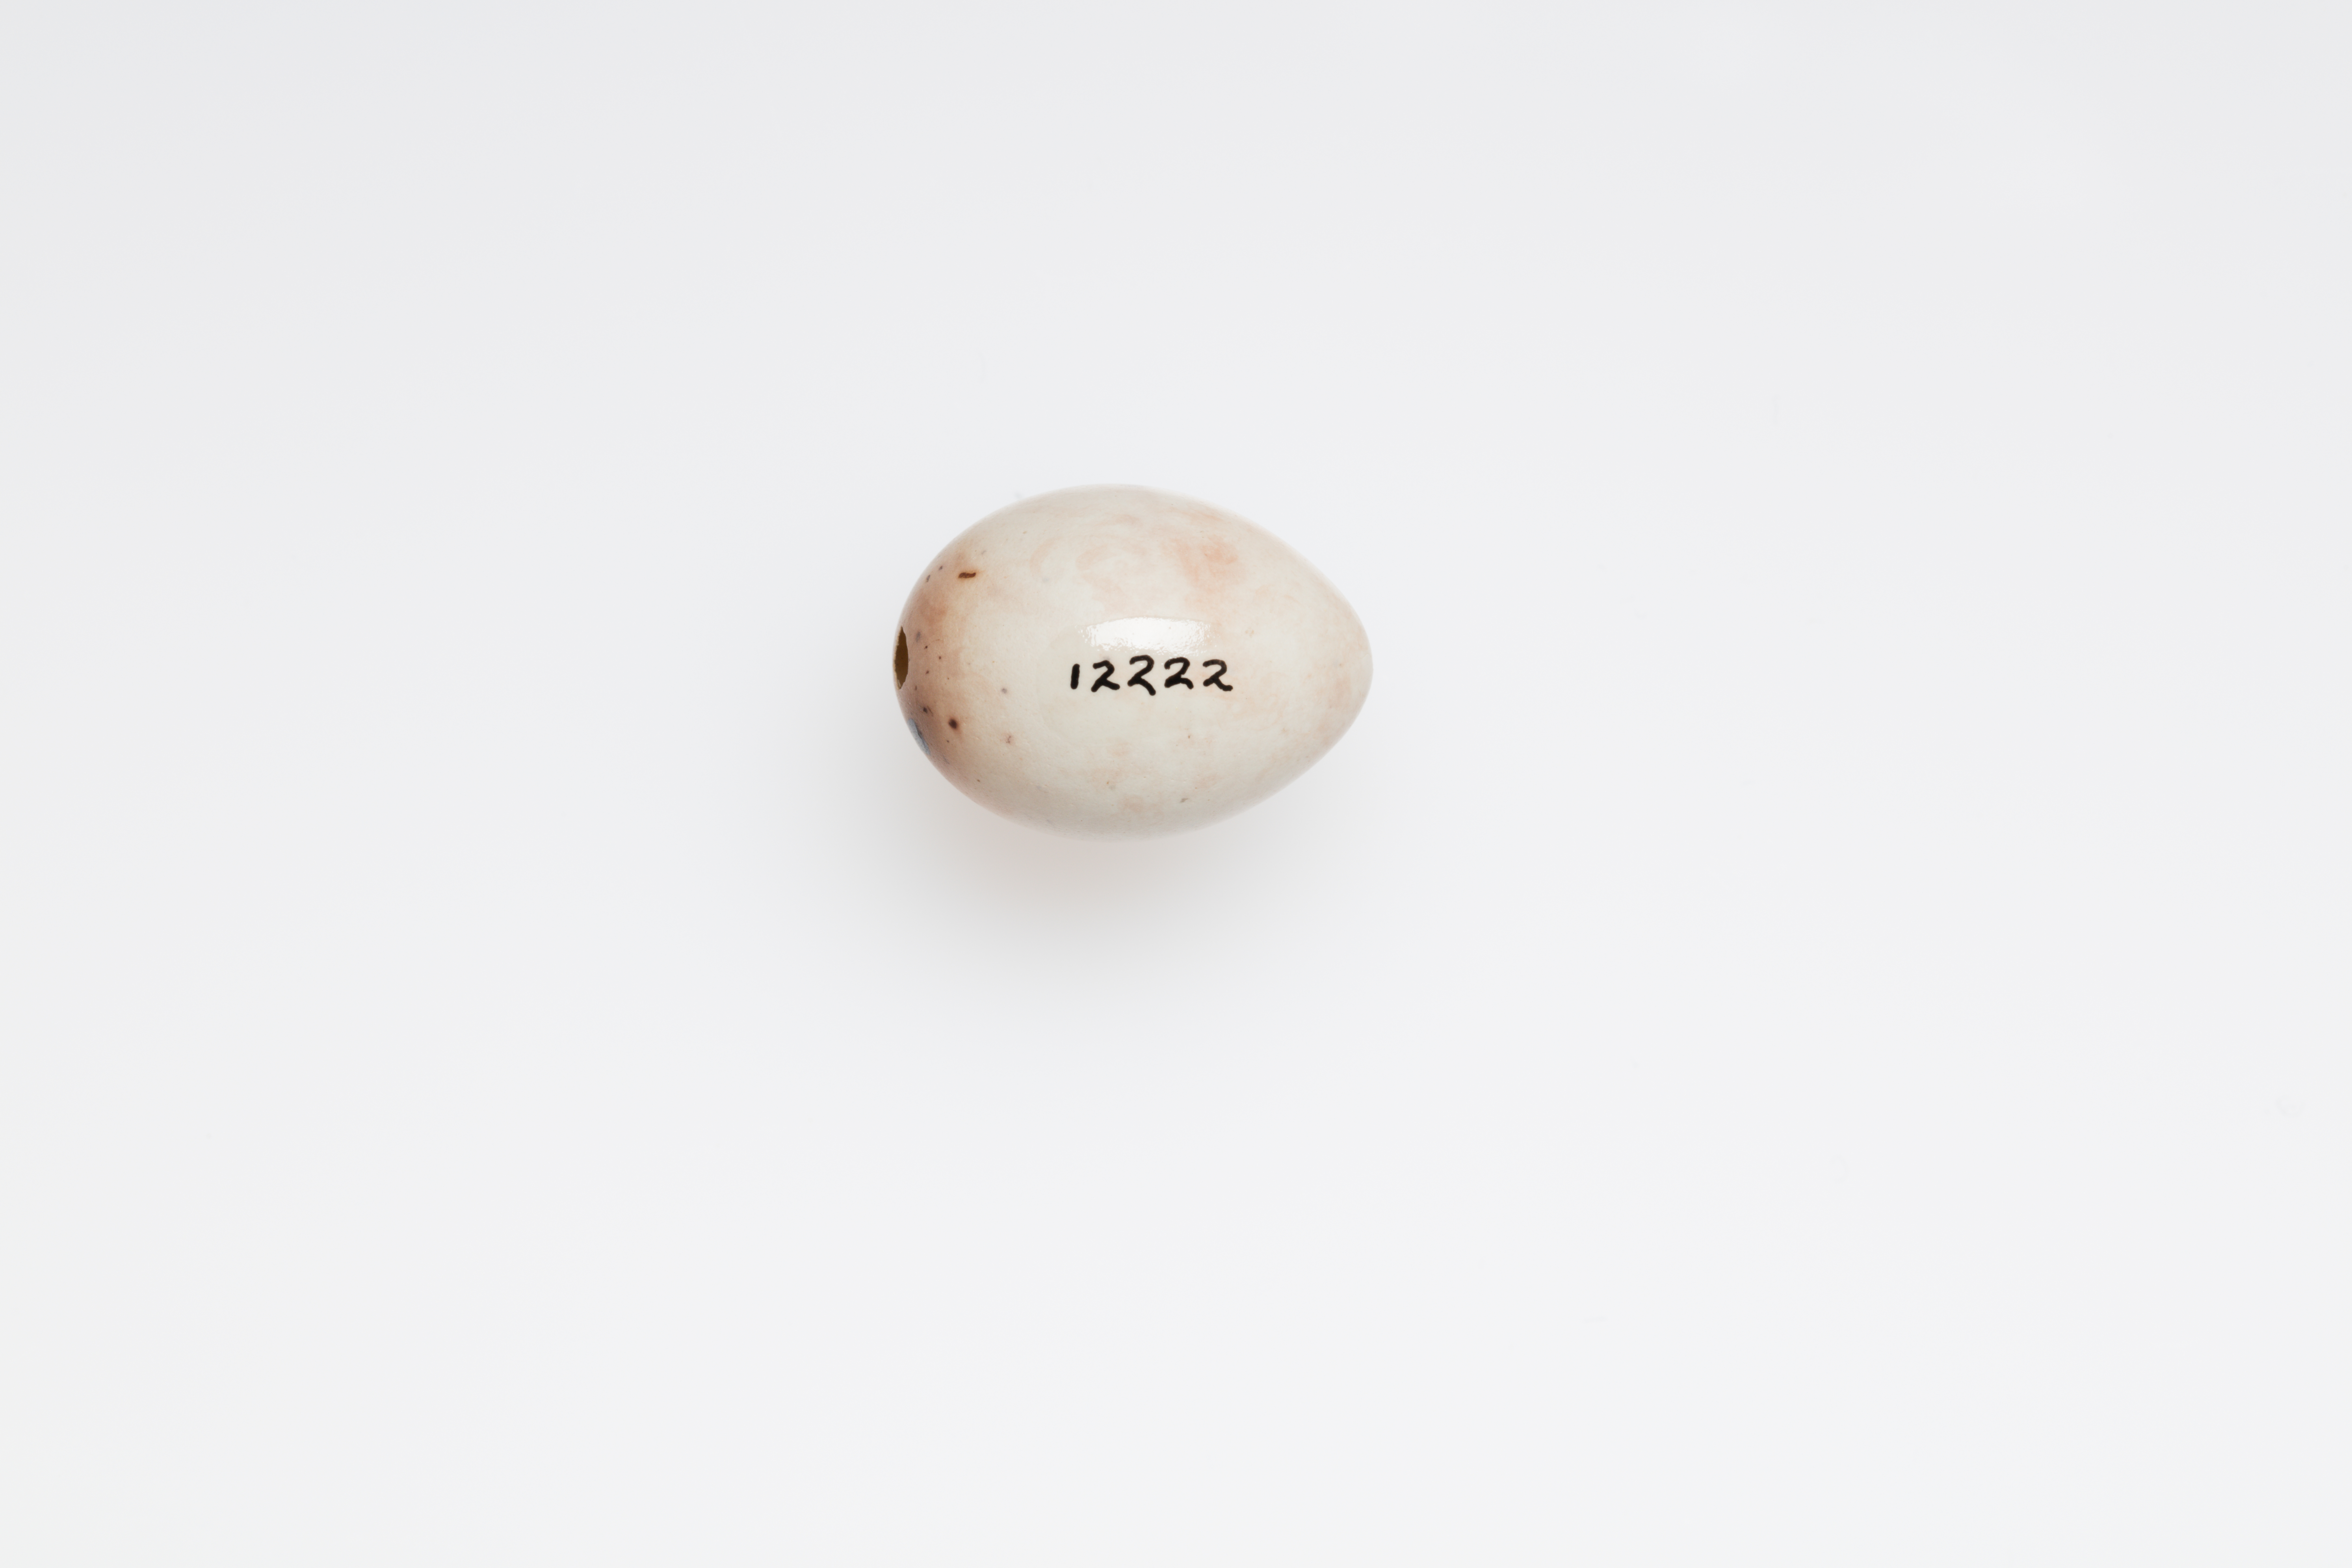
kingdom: Animalia
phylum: Chordata
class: Aves
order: Passeriformes
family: Fringillidae
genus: Fringilla
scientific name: Fringilla montifringilla
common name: Brambling
